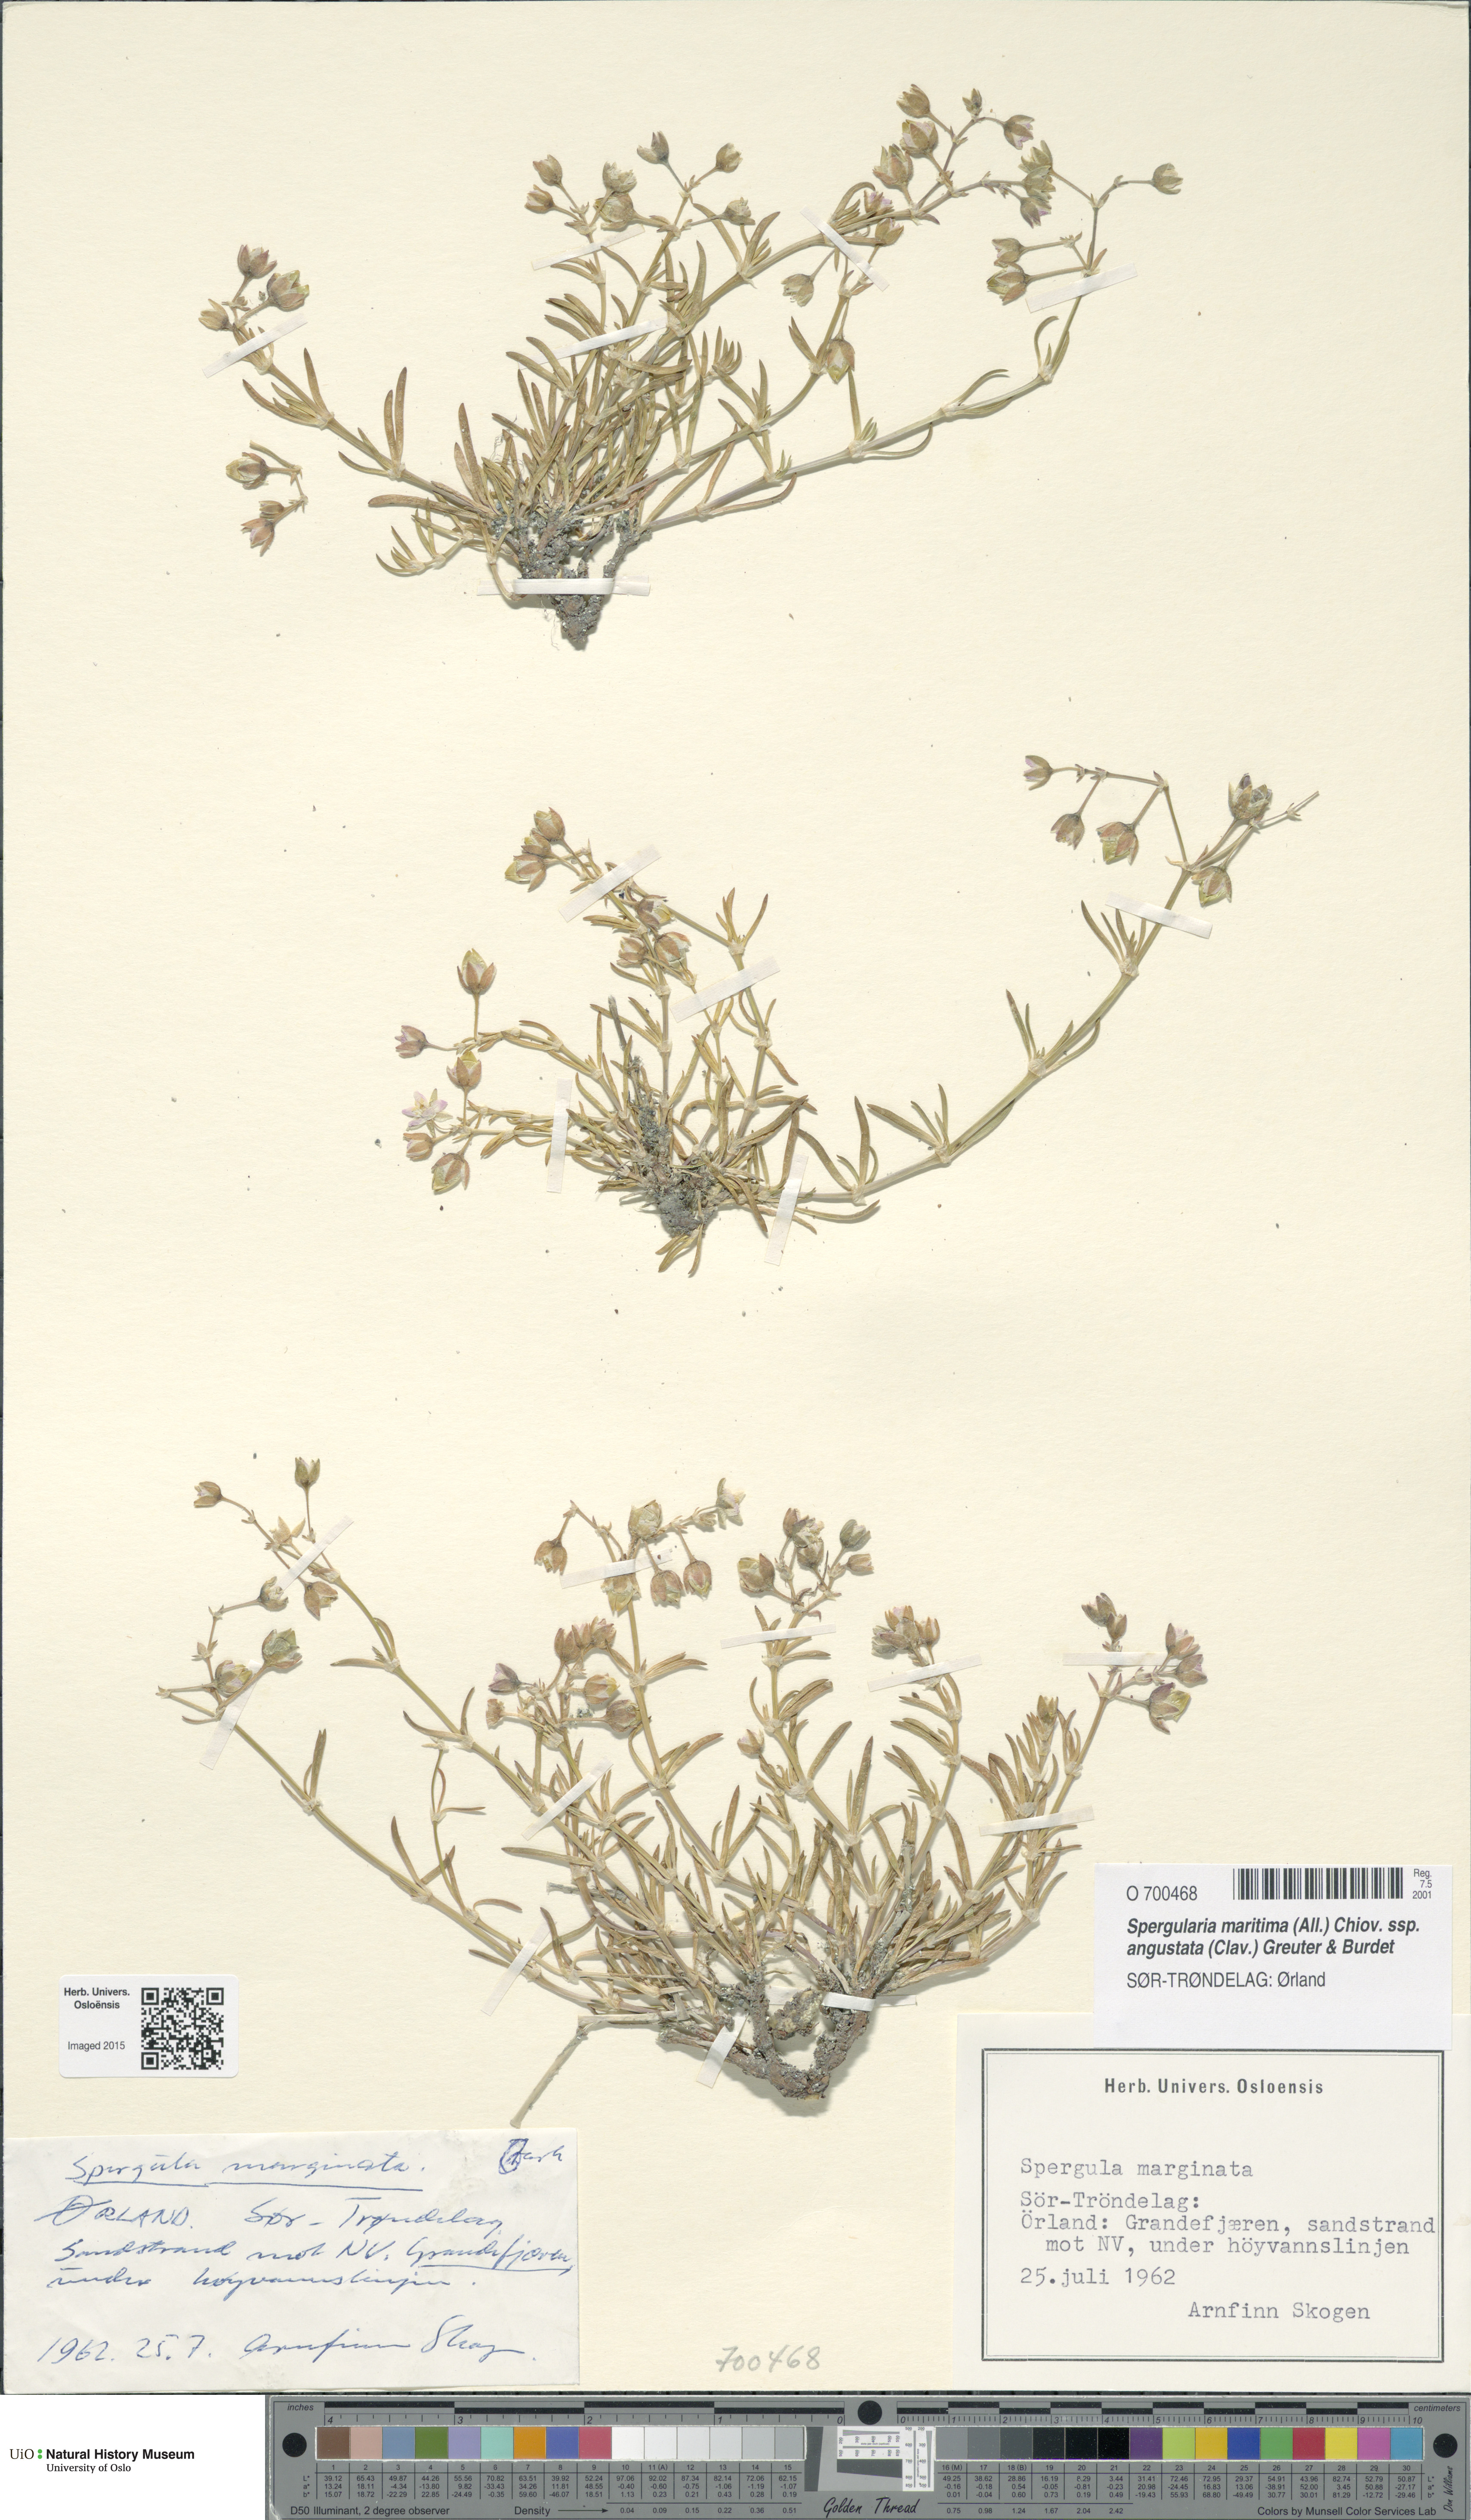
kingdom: Plantae
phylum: Tracheophyta
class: Magnoliopsida
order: Caryophyllales
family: Caryophyllaceae
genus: Spergularia
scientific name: Spergularia media
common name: Greater sea-spurrey
